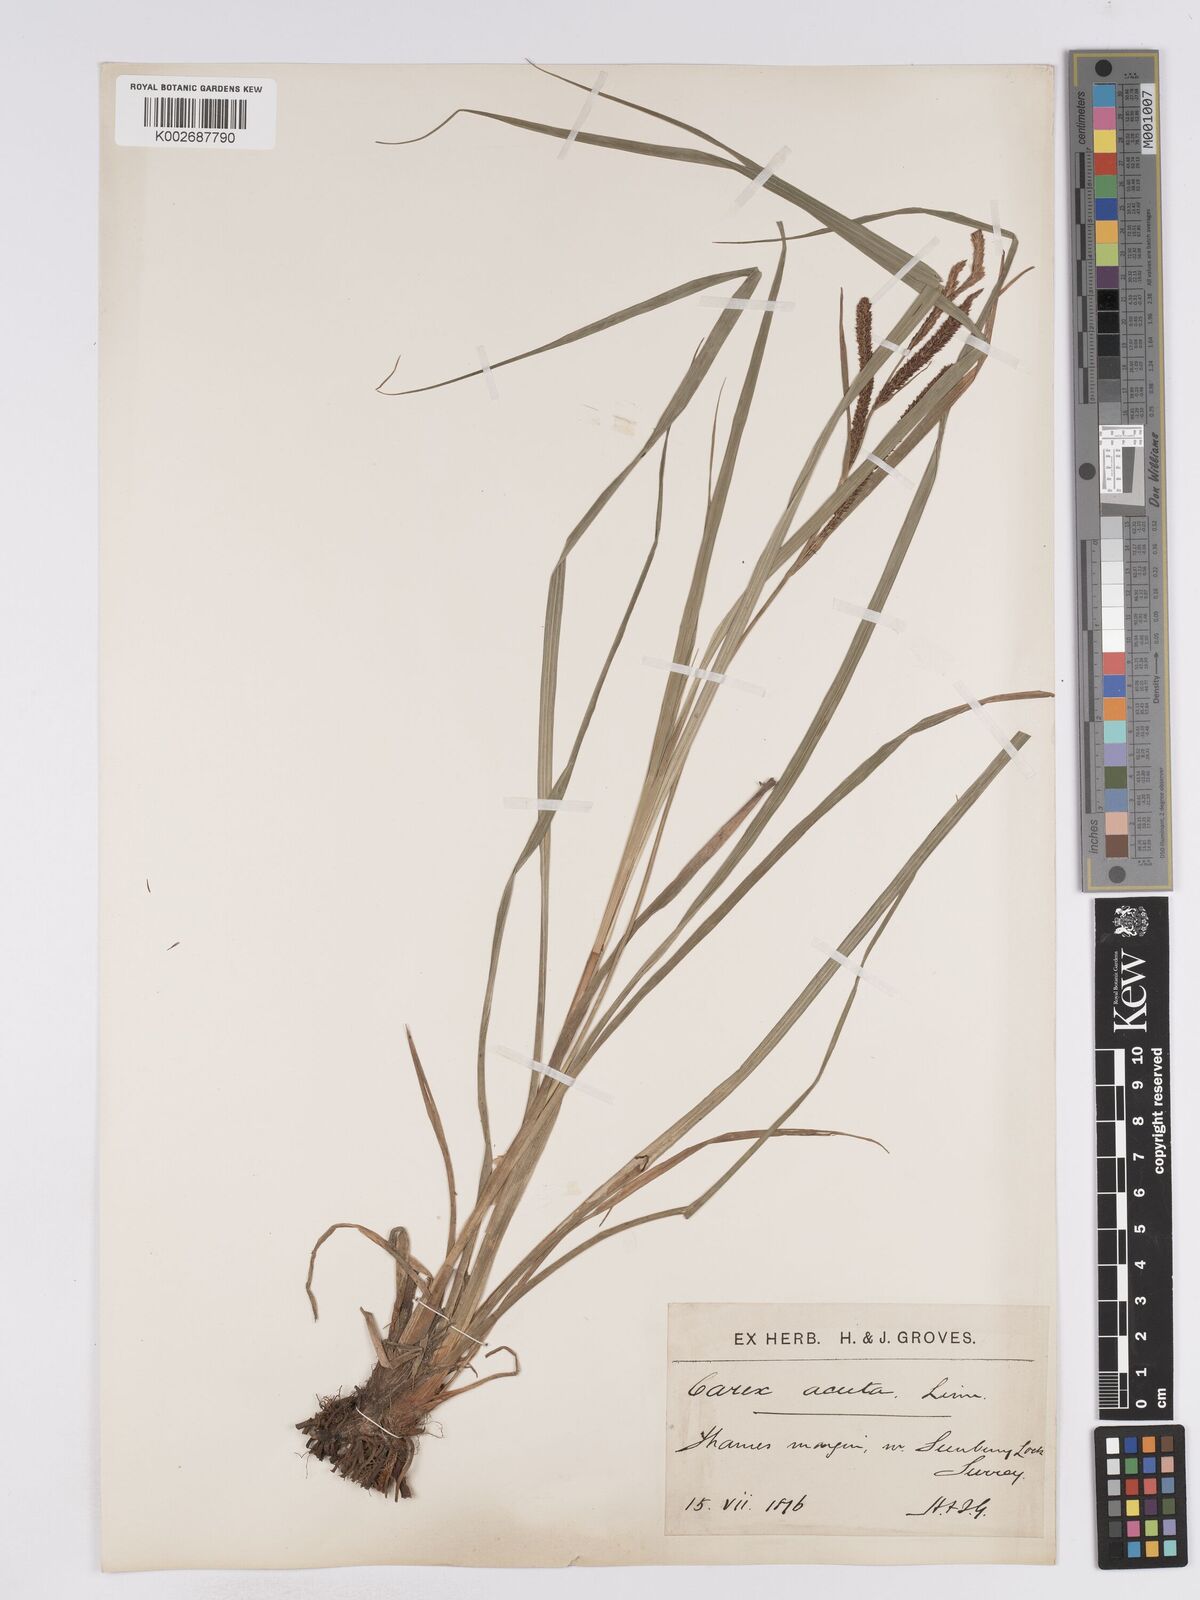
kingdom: Plantae
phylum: Tracheophyta
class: Liliopsida
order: Poales
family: Cyperaceae
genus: Carex
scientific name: Carex acuta
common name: Slender tufted-sedge
